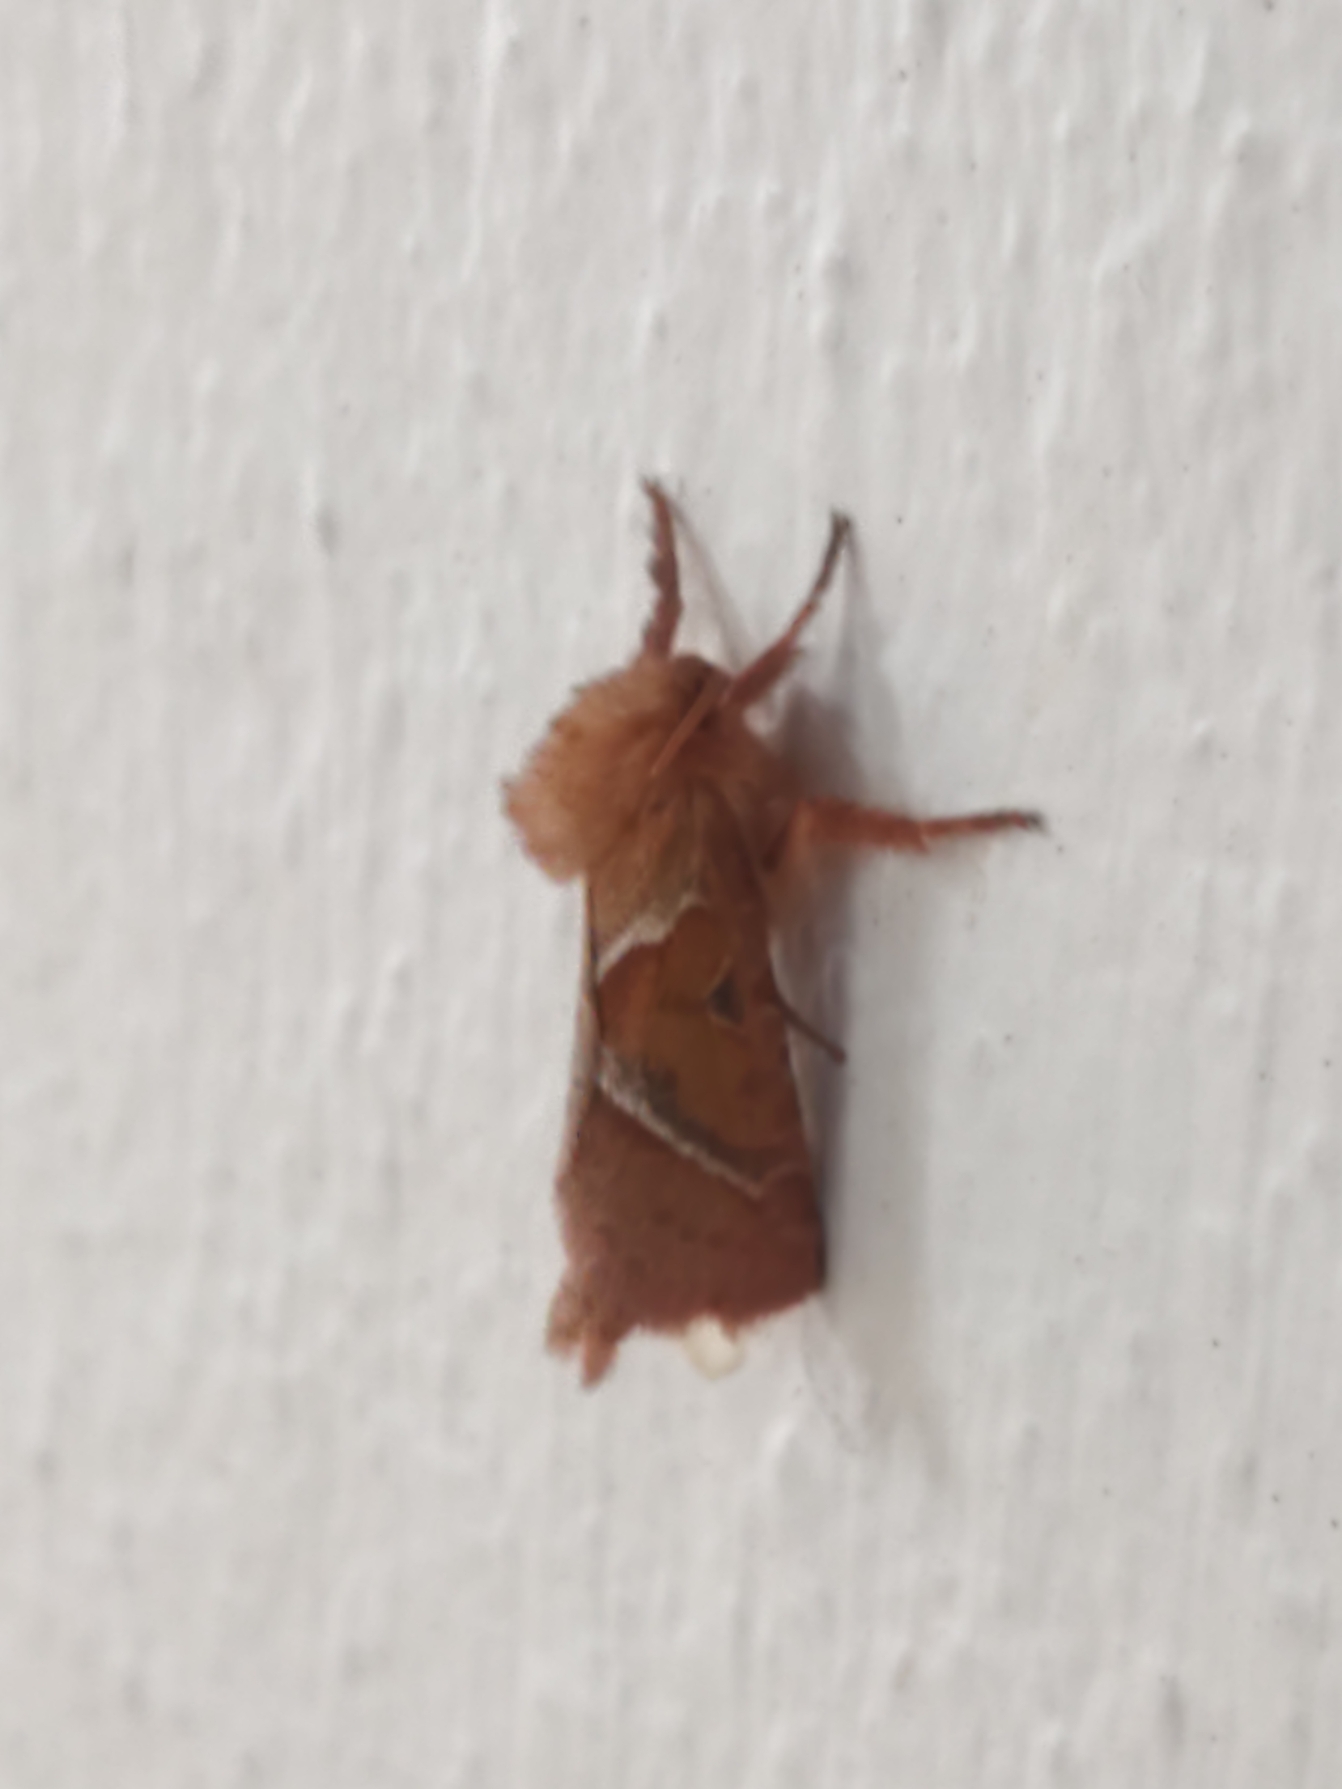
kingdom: Animalia
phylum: Arthropoda
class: Insecta
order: Lepidoptera
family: Hepialidae
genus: Triodia
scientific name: Triodia sylvina
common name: Skræpperodæder
